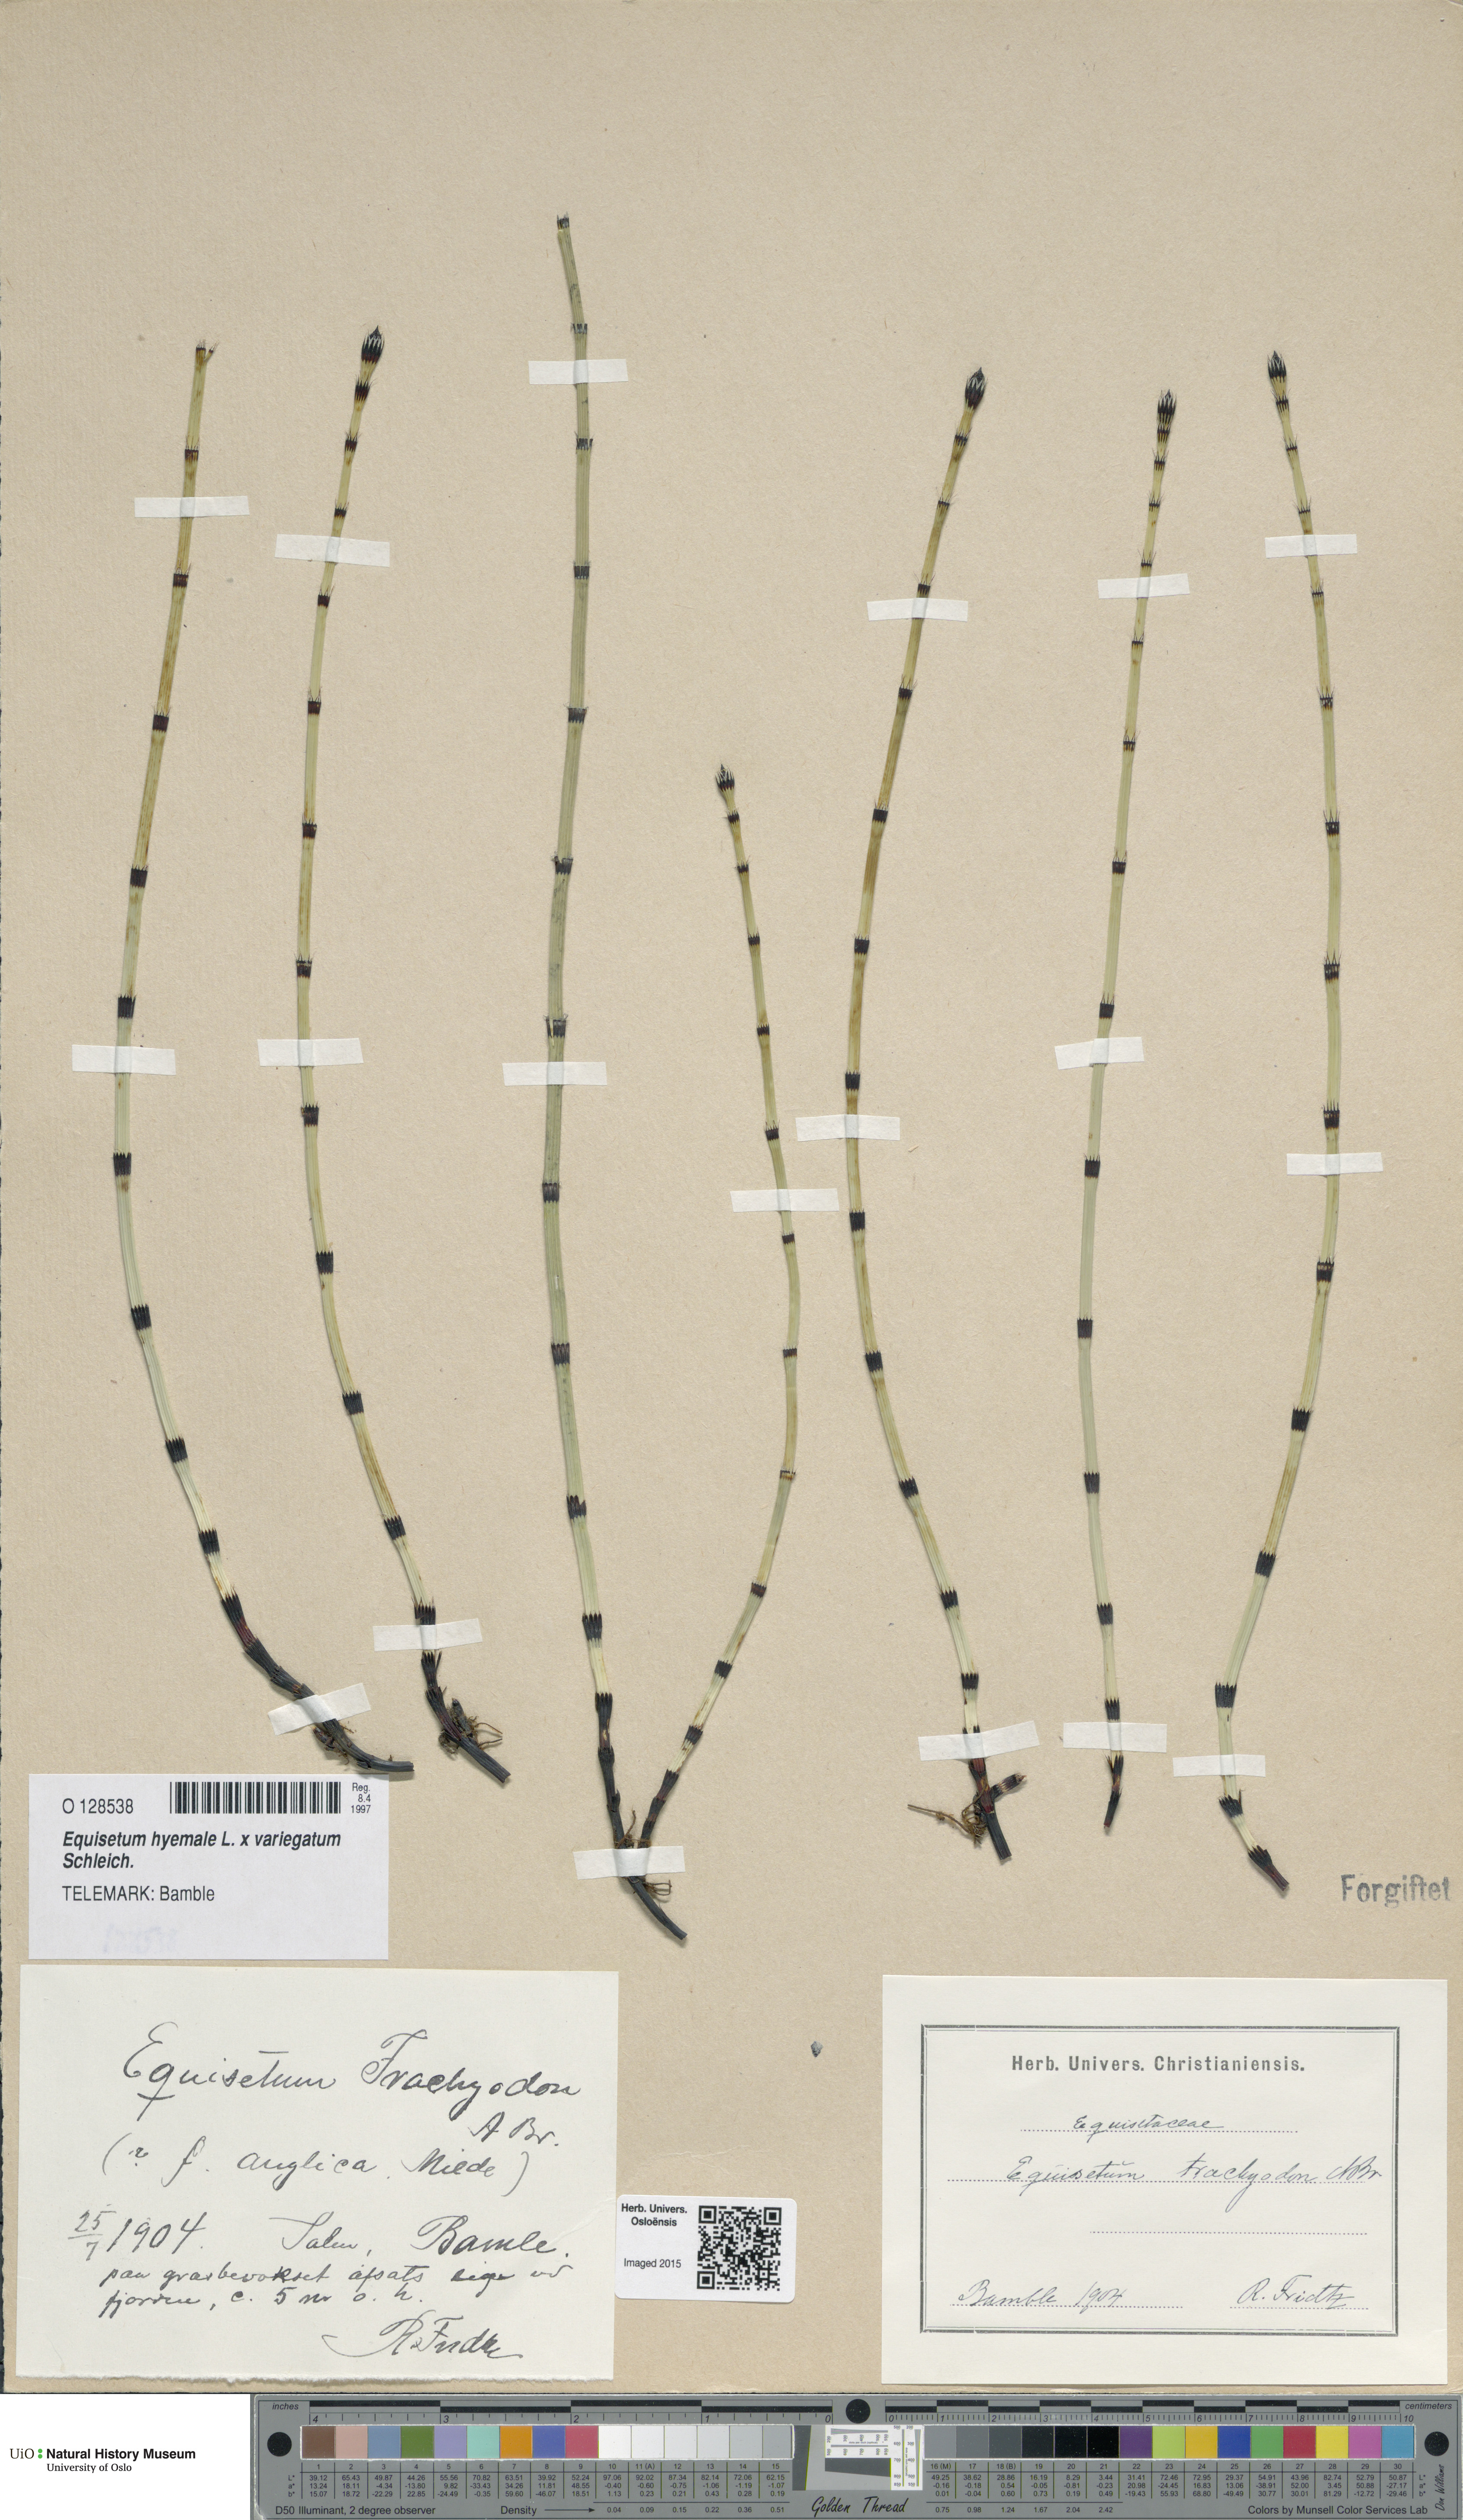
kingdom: Plantae
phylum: Tracheophyta
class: Polypodiopsida
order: Equisetales
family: Equisetaceae
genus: Equisetum
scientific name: Equisetum
